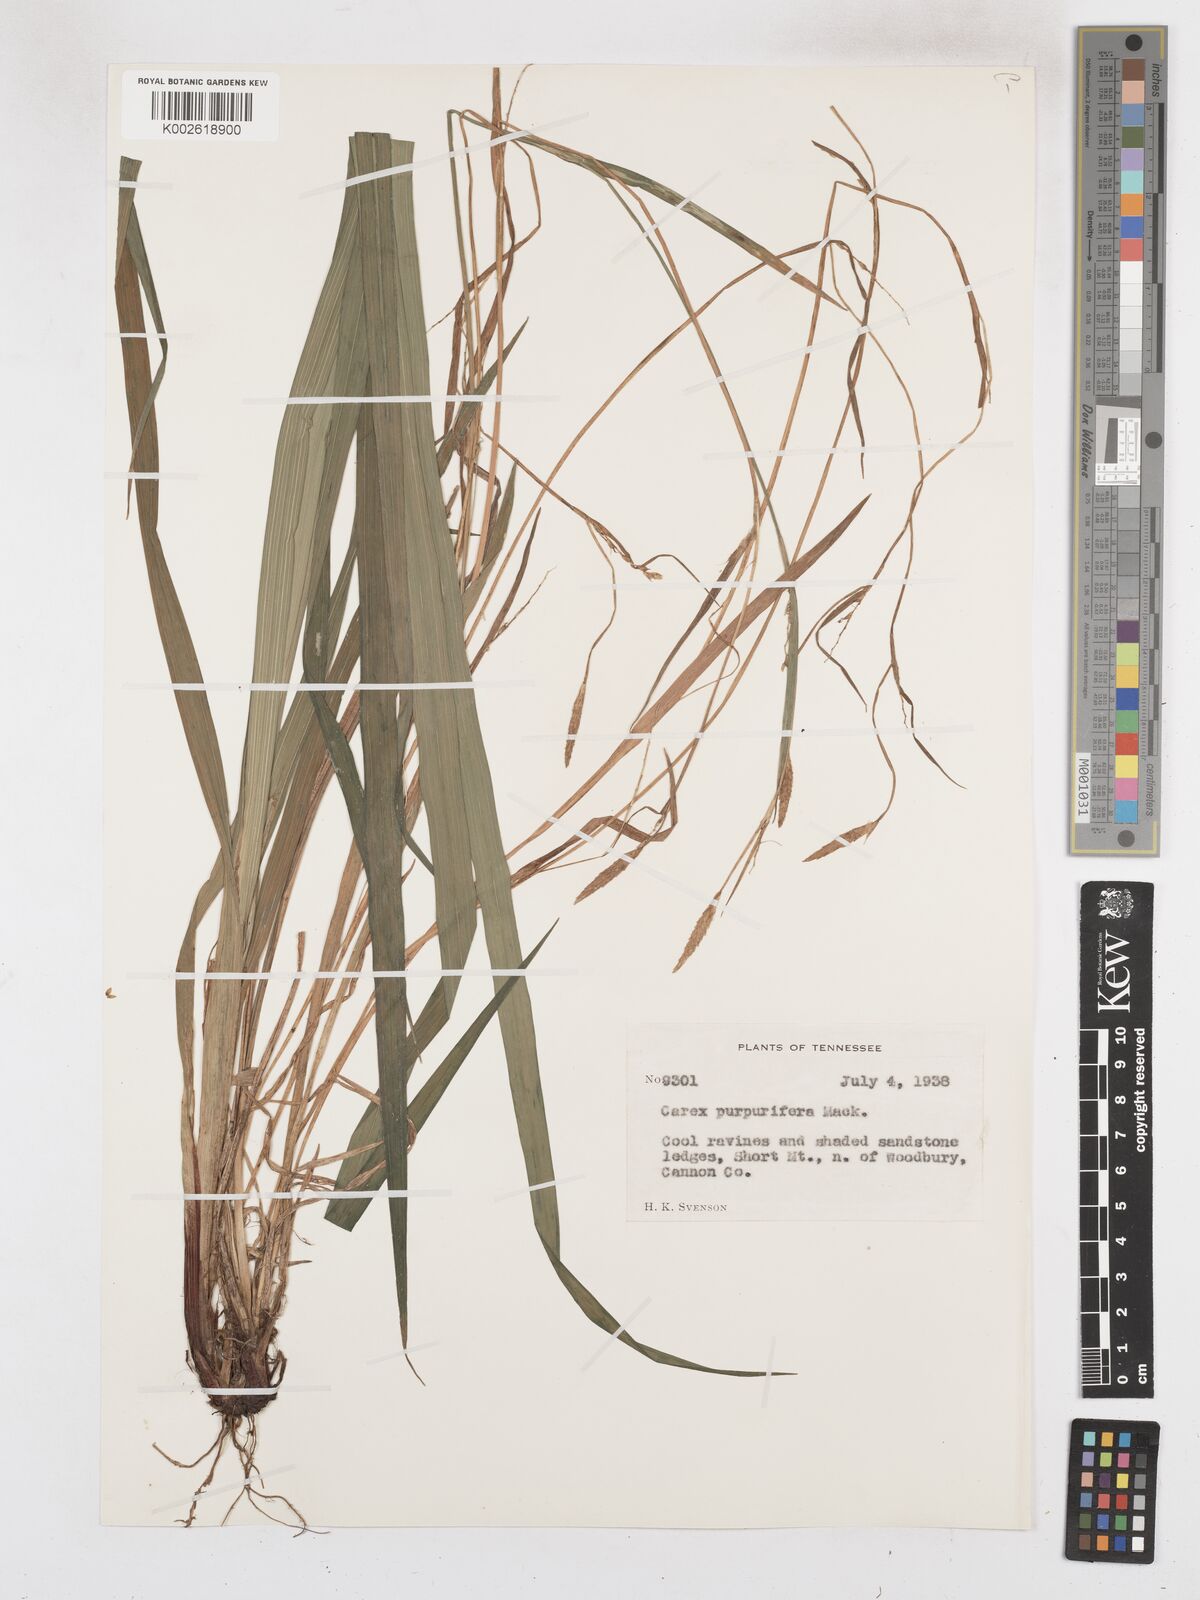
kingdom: Plantae
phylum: Tracheophyta
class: Liliopsida
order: Poales
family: Cyperaceae
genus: Carex
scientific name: Carex purpurifera
